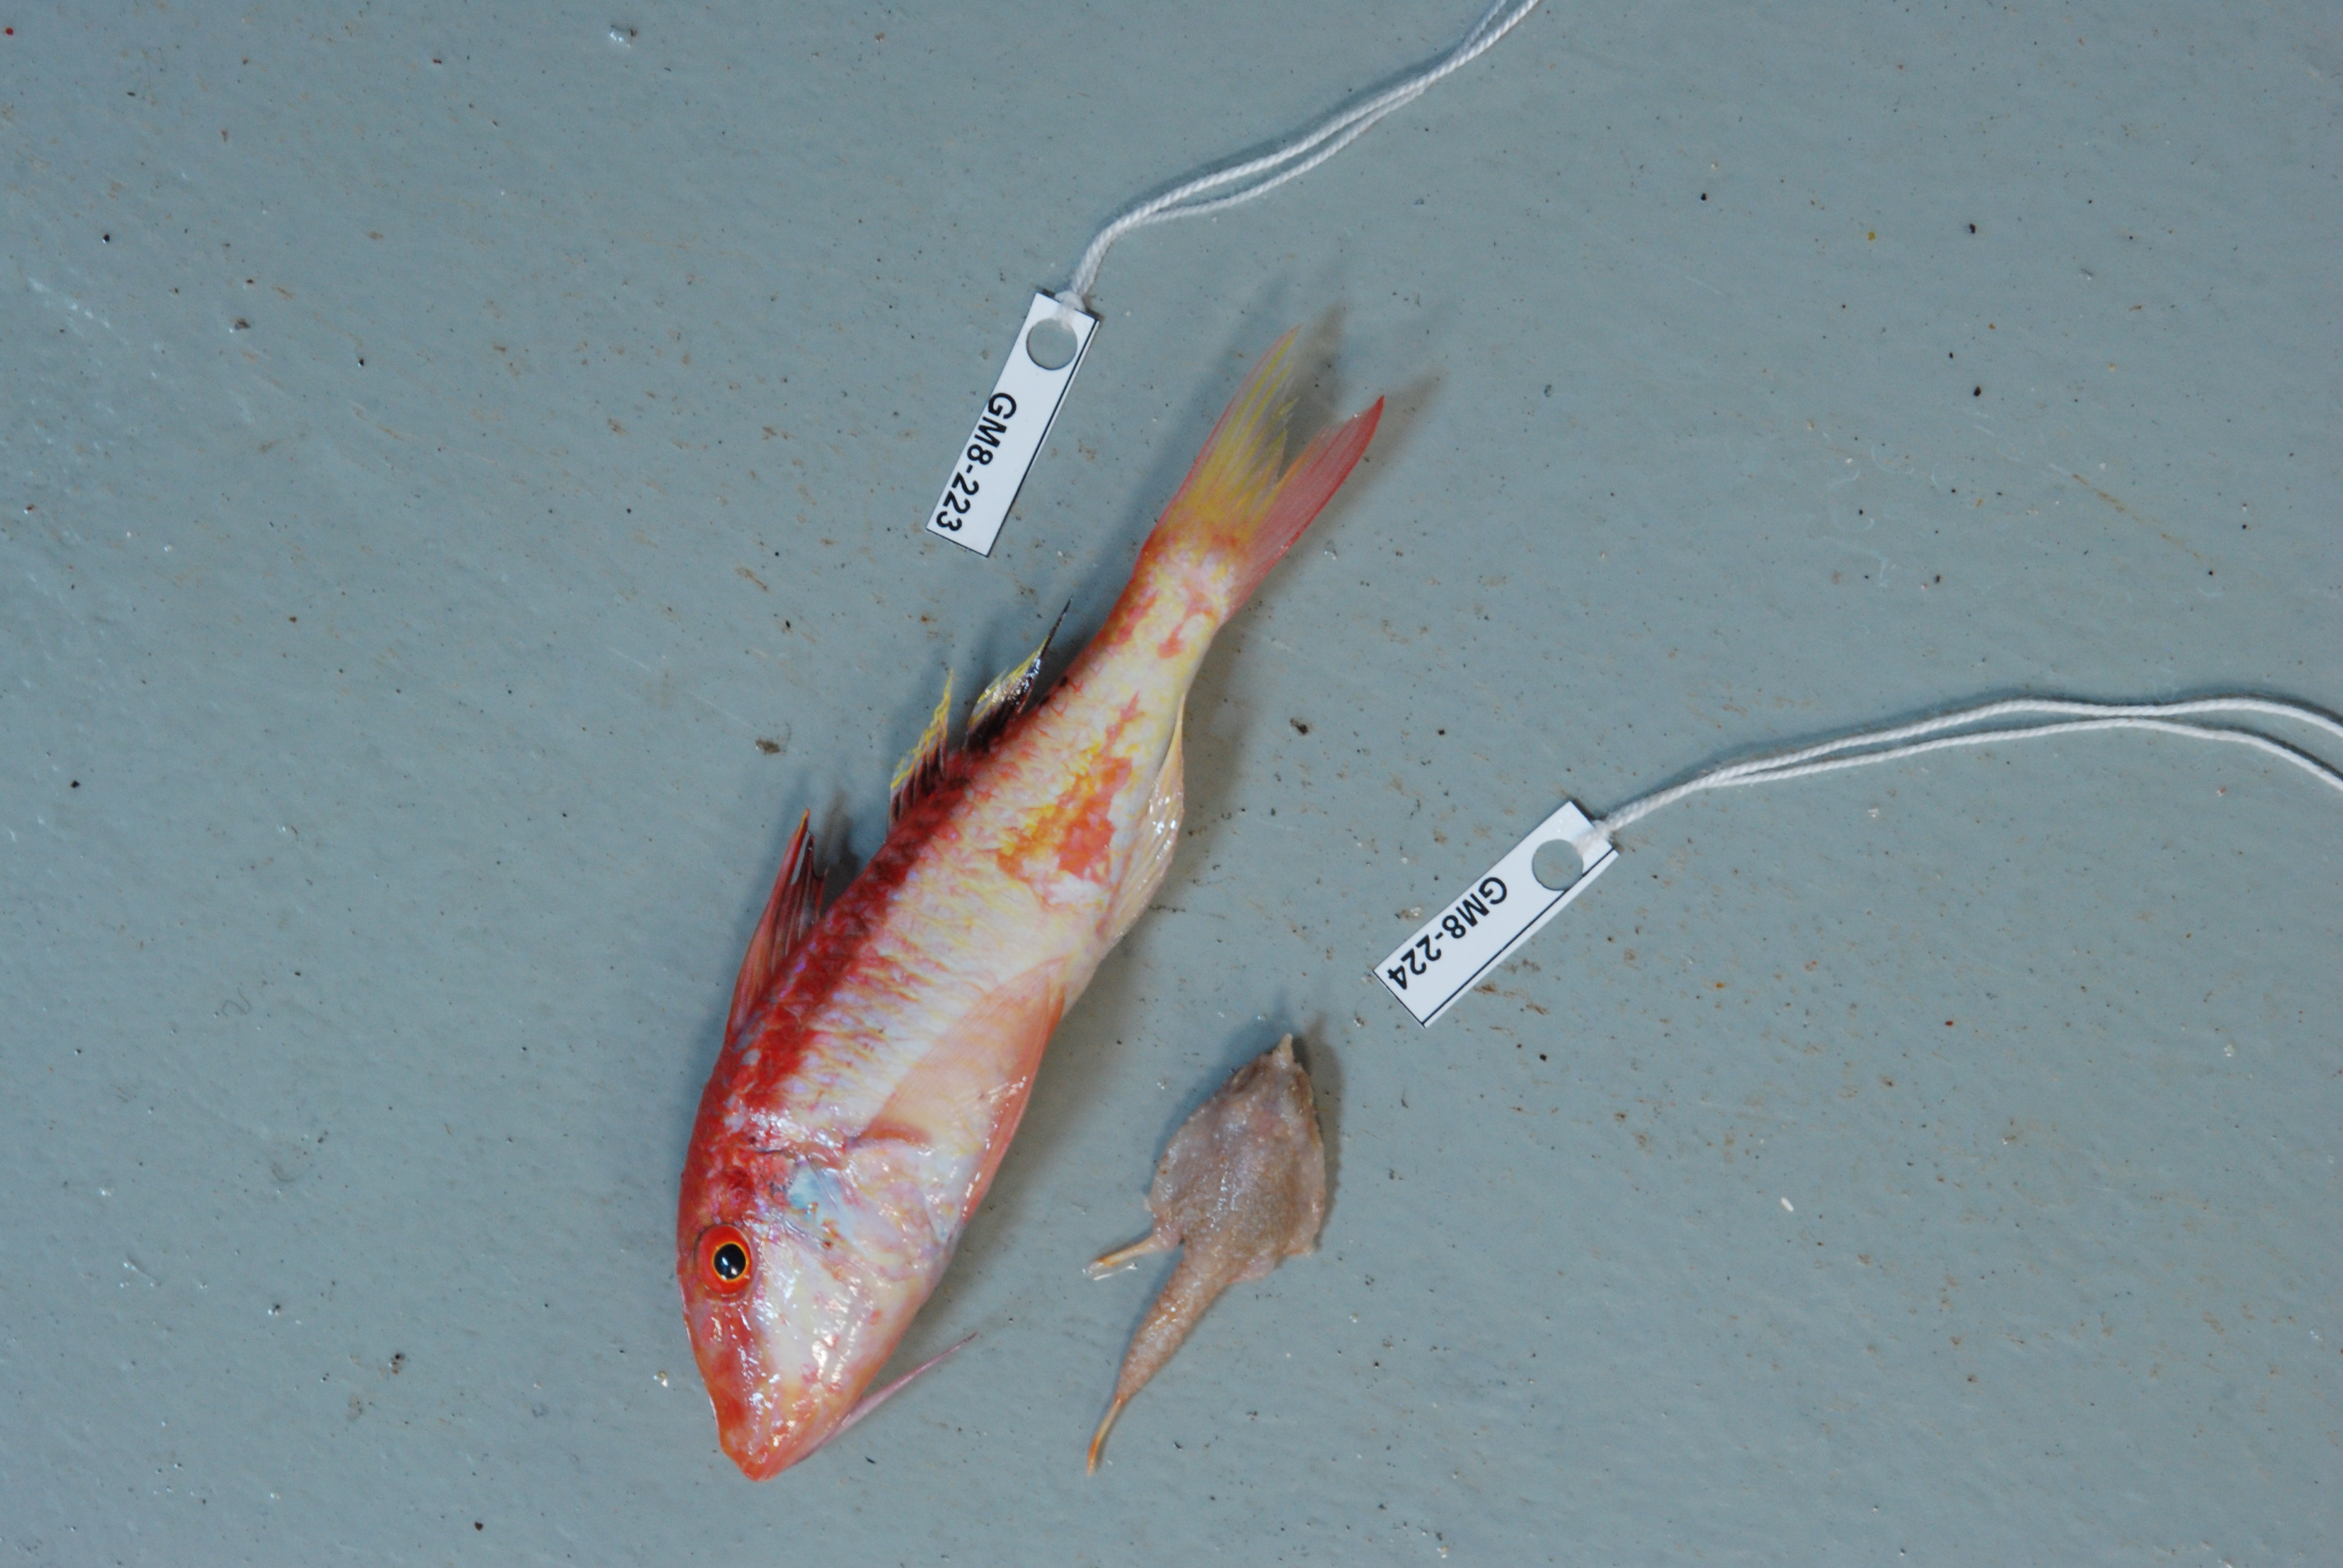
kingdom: Animalia
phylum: Chordata
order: Perciformes
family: Mullidae
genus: Parupeneus
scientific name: Parupeneus
